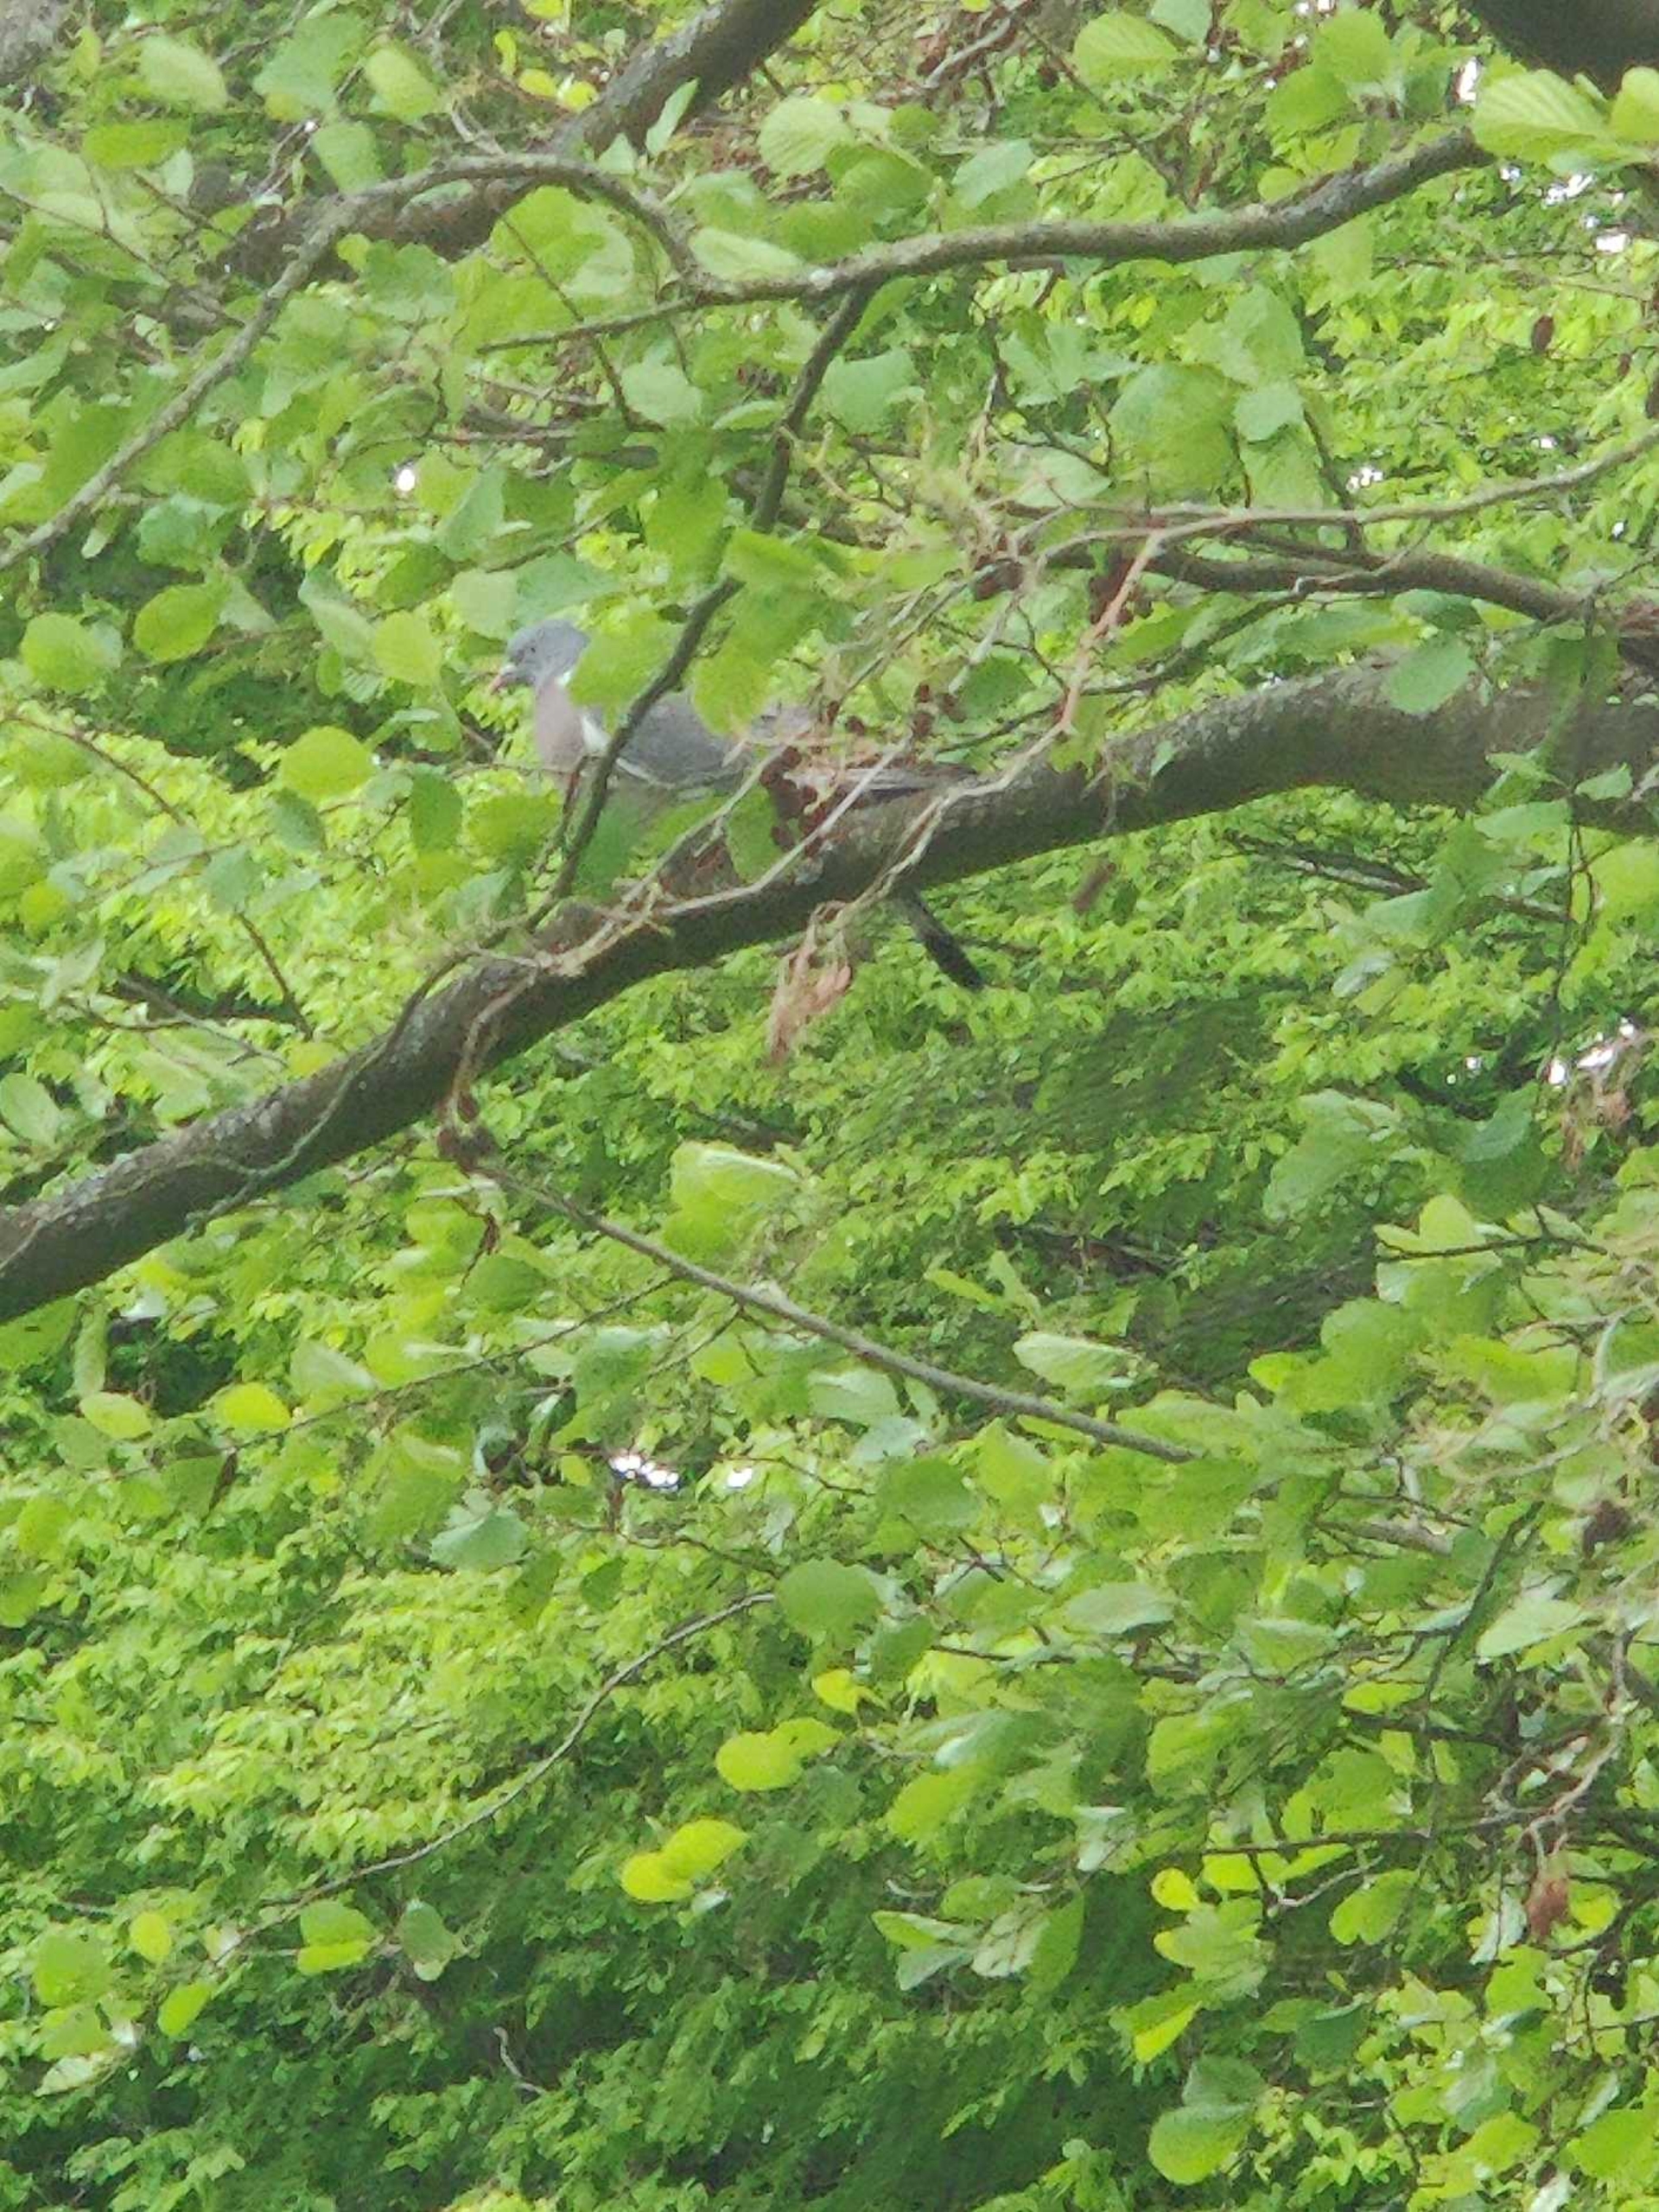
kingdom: Animalia
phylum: Chordata
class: Aves
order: Columbiformes
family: Columbidae
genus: Columba
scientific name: Columba palumbus
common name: Ringdue
